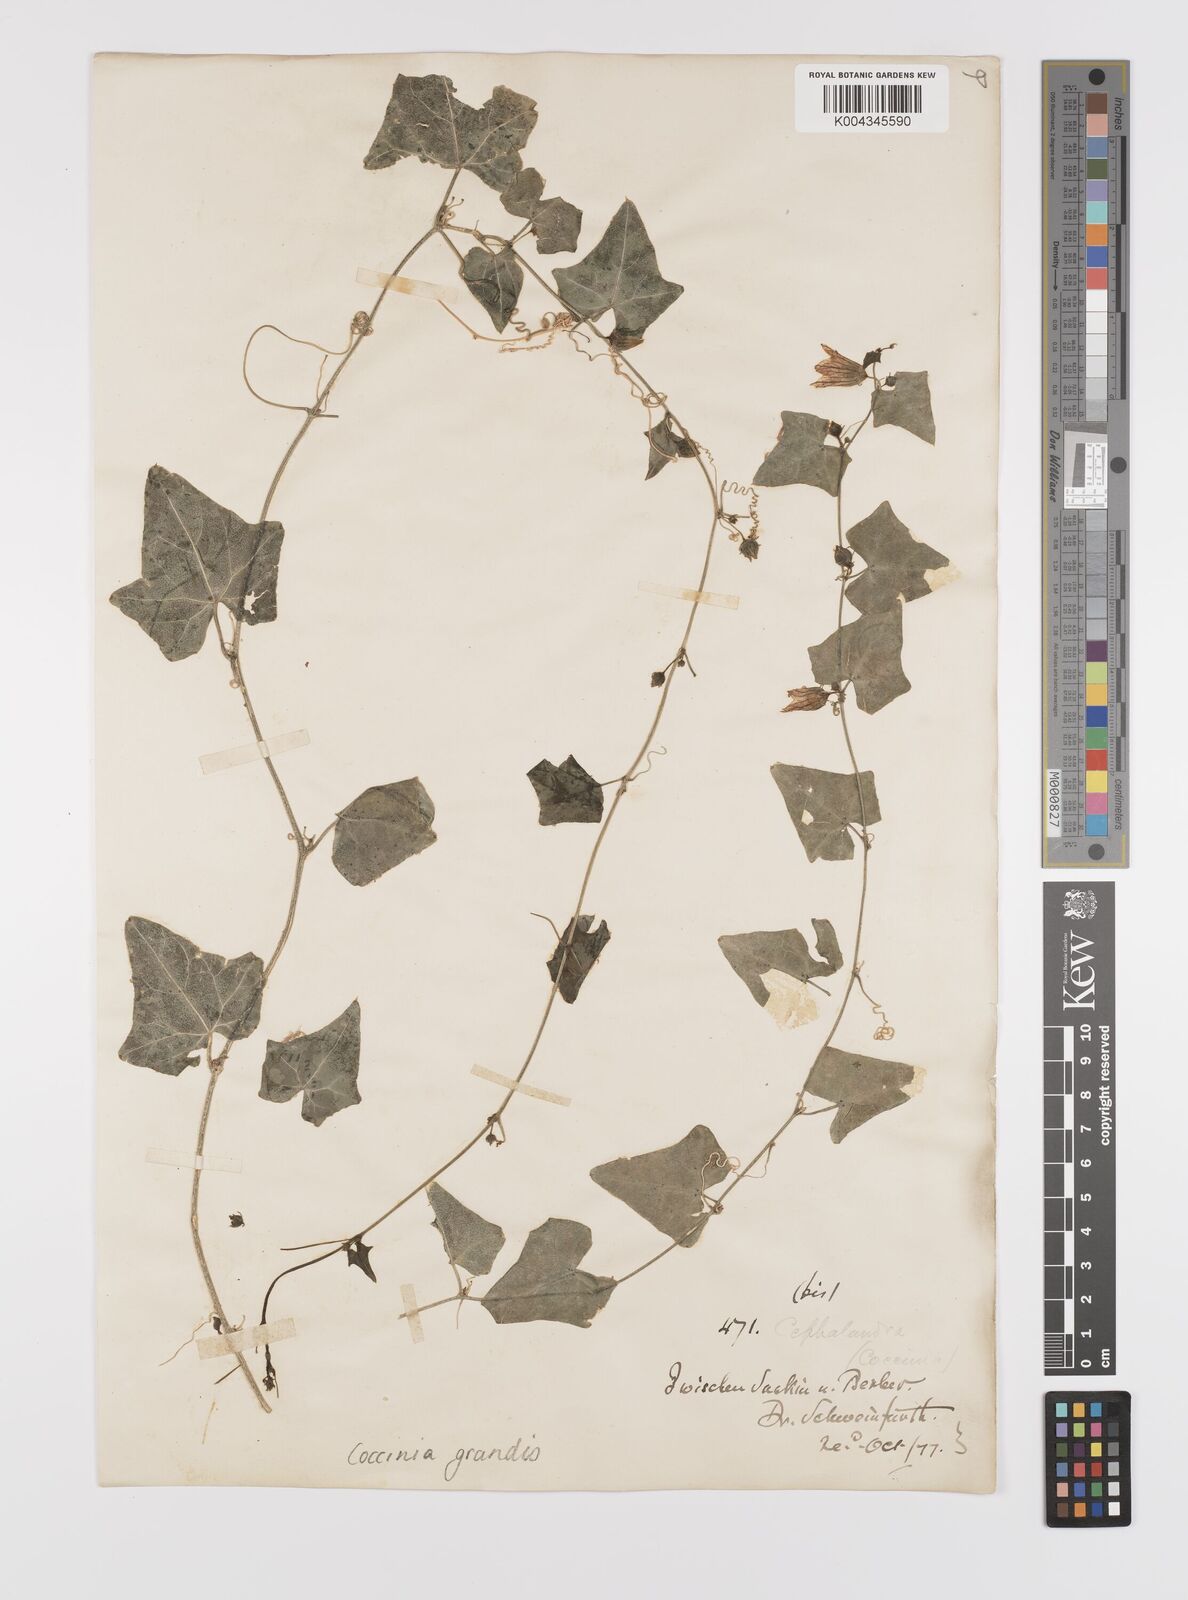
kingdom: Plantae
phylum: Tracheophyta
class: Magnoliopsida
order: Cucurbitales
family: Cucurbitaceae
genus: Coccinia
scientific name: Coccinia grandis
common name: Ivy gourd
